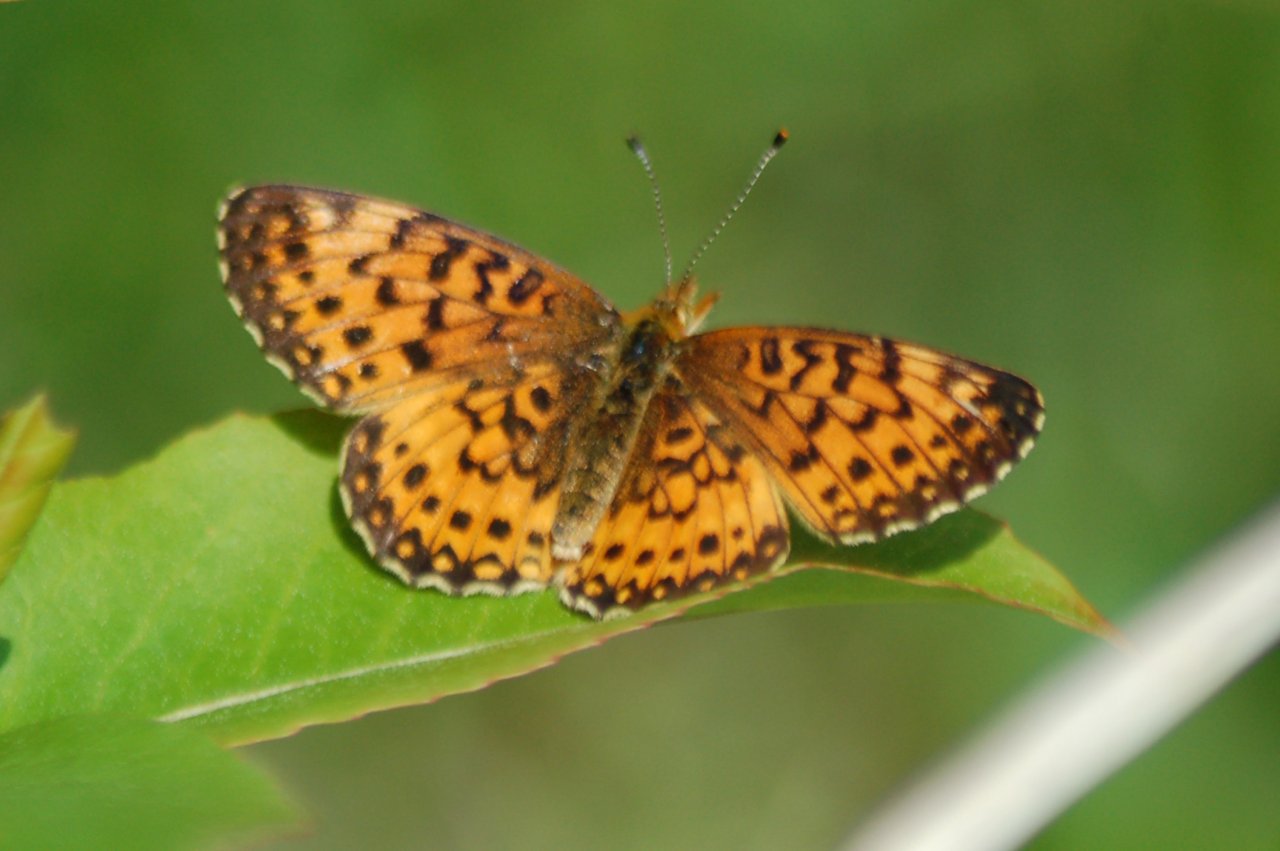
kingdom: Animalia
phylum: Arthropoda
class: Insecta
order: Lepidoptera
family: Nymphalidae
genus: Boloria
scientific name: Boloria selene
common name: Silver-bordered Fritillary
